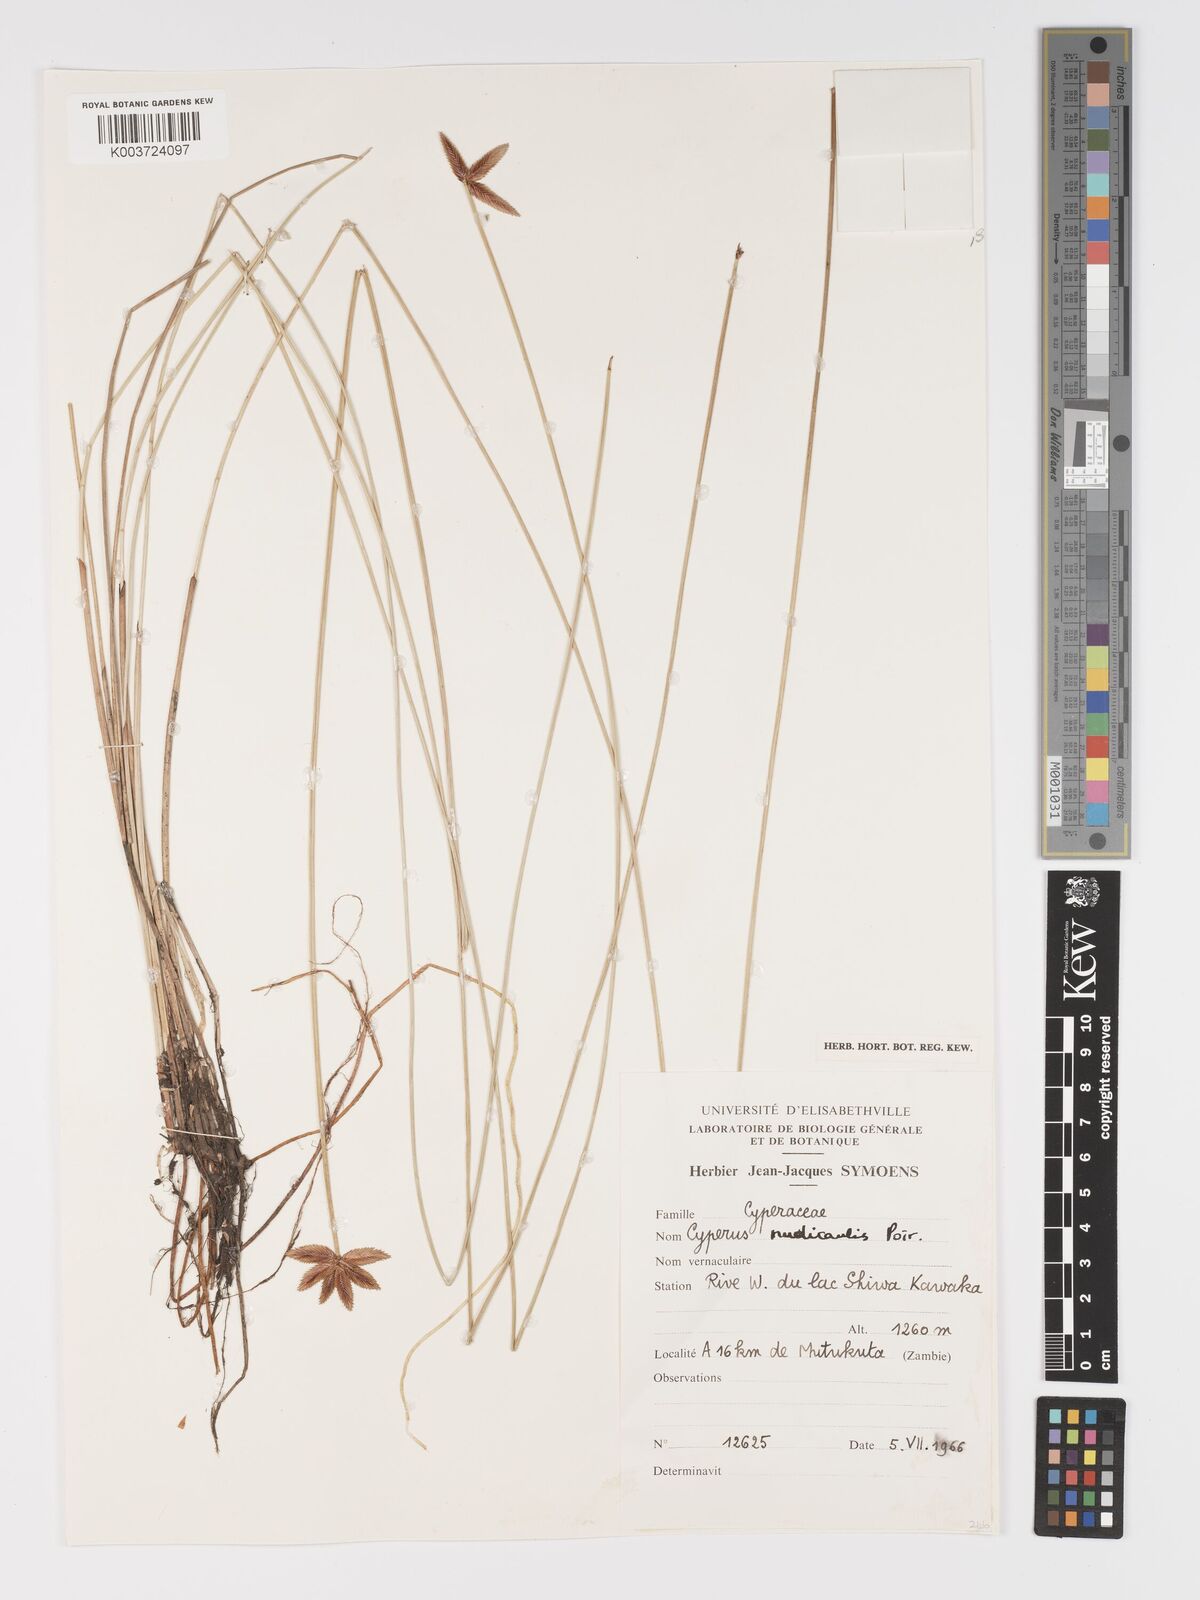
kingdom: Plantae
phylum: Tracheophyta
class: Liliopsida
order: Poales
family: Cyperaceae
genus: Cyperus
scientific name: Cyperus compressus
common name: Poorland flatsedge
